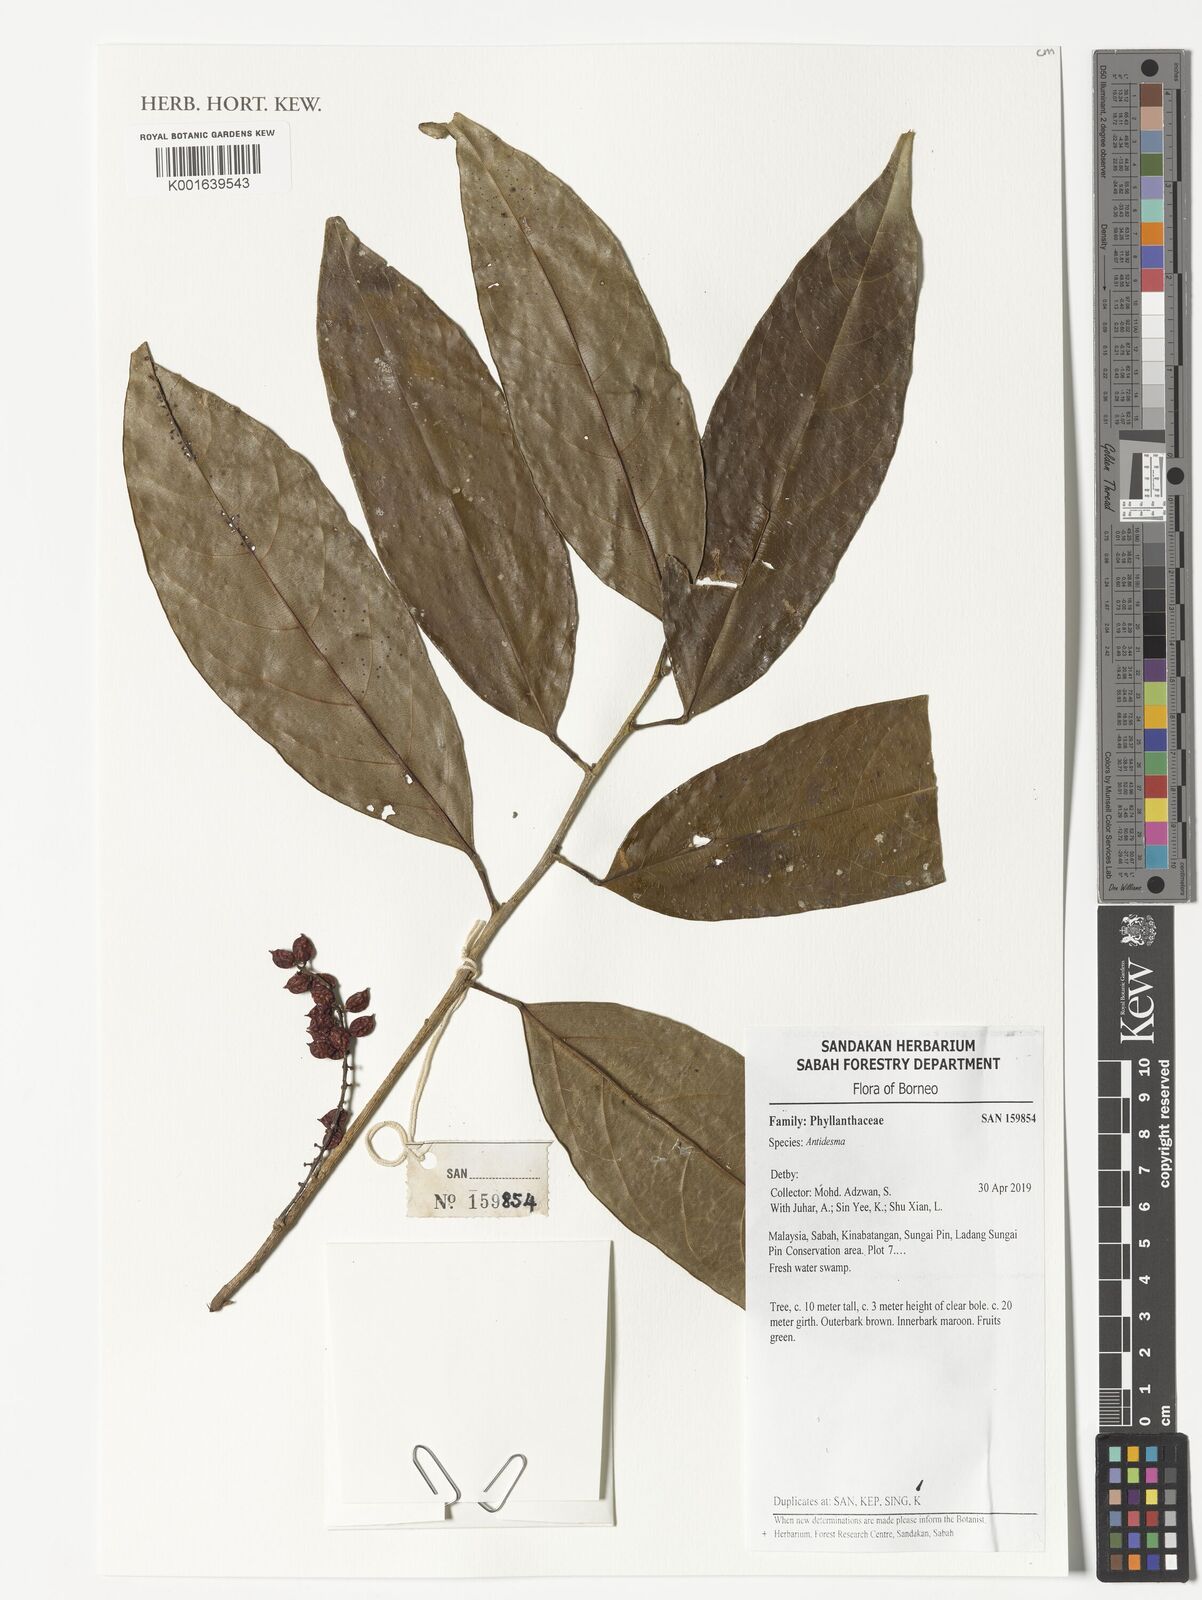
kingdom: Plantae
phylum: Tracheophyta
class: Magnoliopsida
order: Malpighiales
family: Phyllanthaceae
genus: Antidesma
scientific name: Antidesma
